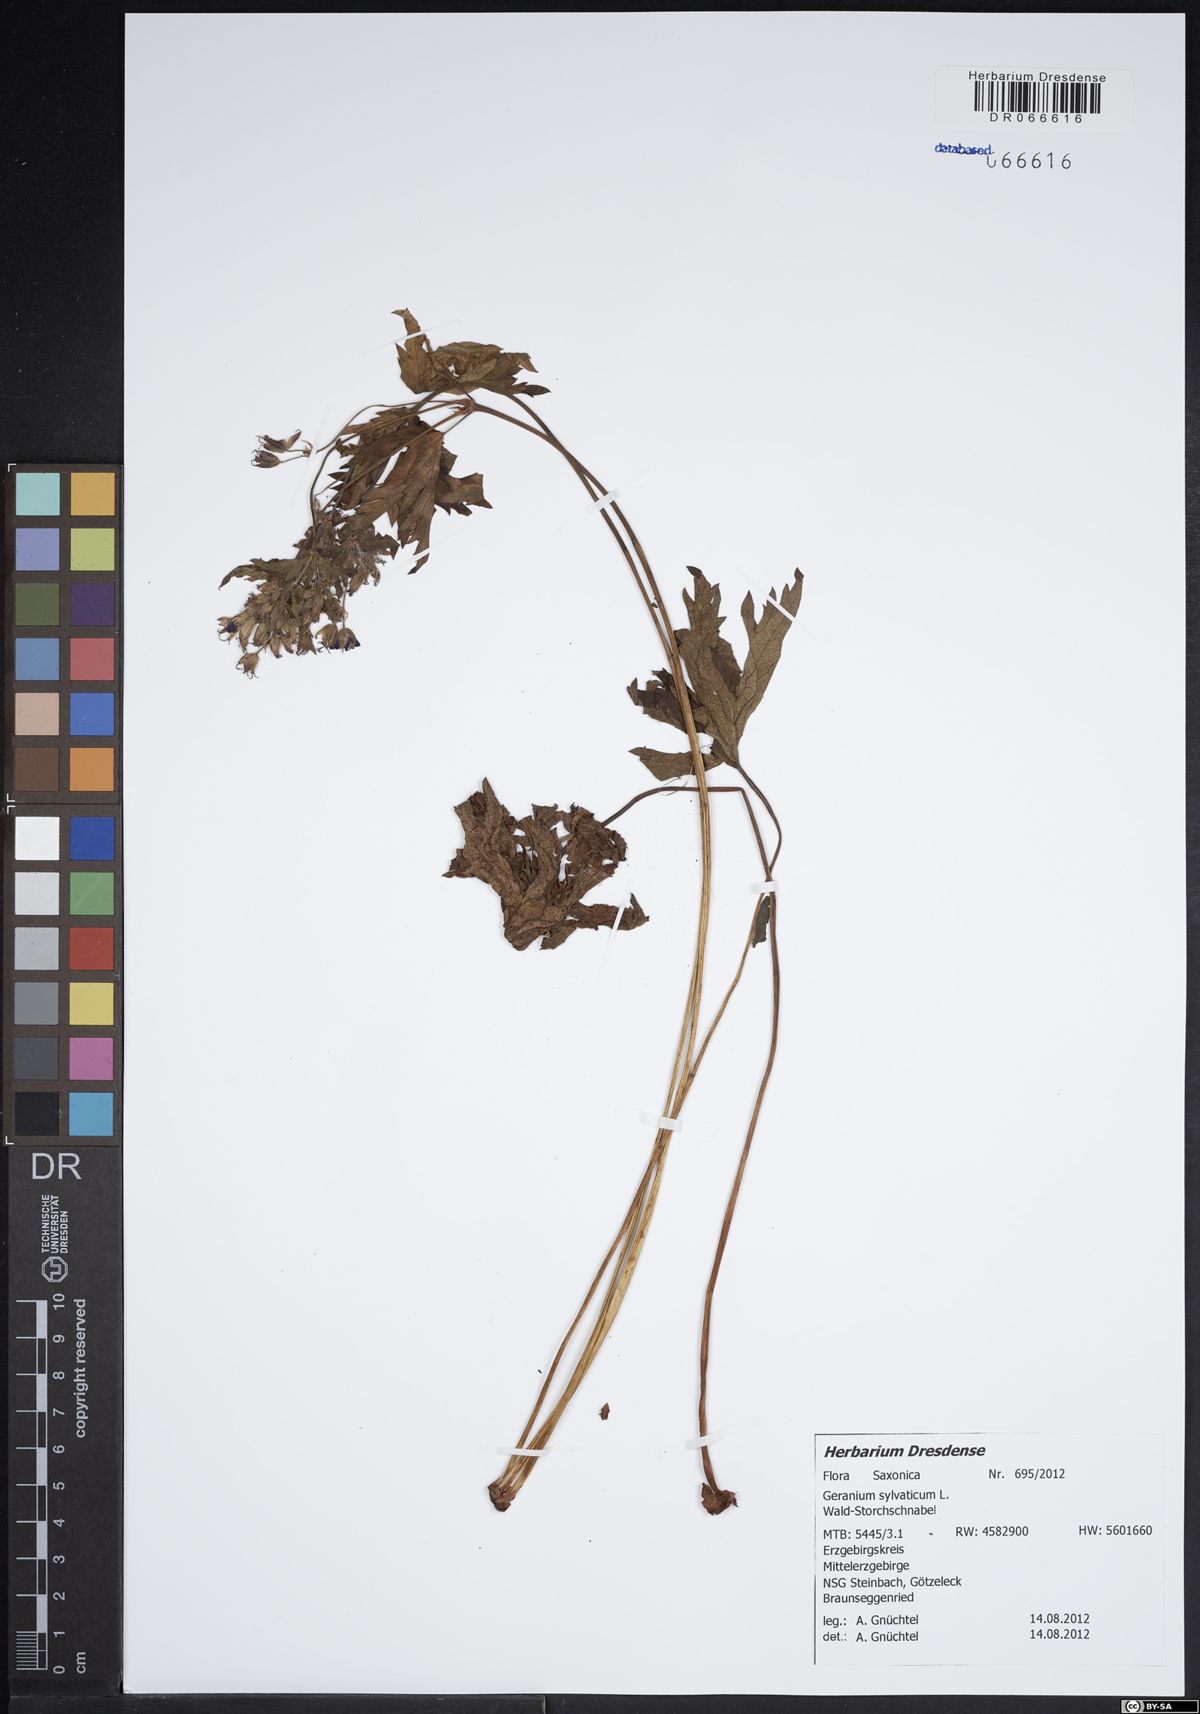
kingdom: Plantae
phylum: Tracheophyta
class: Magnoliopsida
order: Geraniales
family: Geraniaceae
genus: Geranium
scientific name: Geranium sylvaticum
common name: Wood crane's-bill
